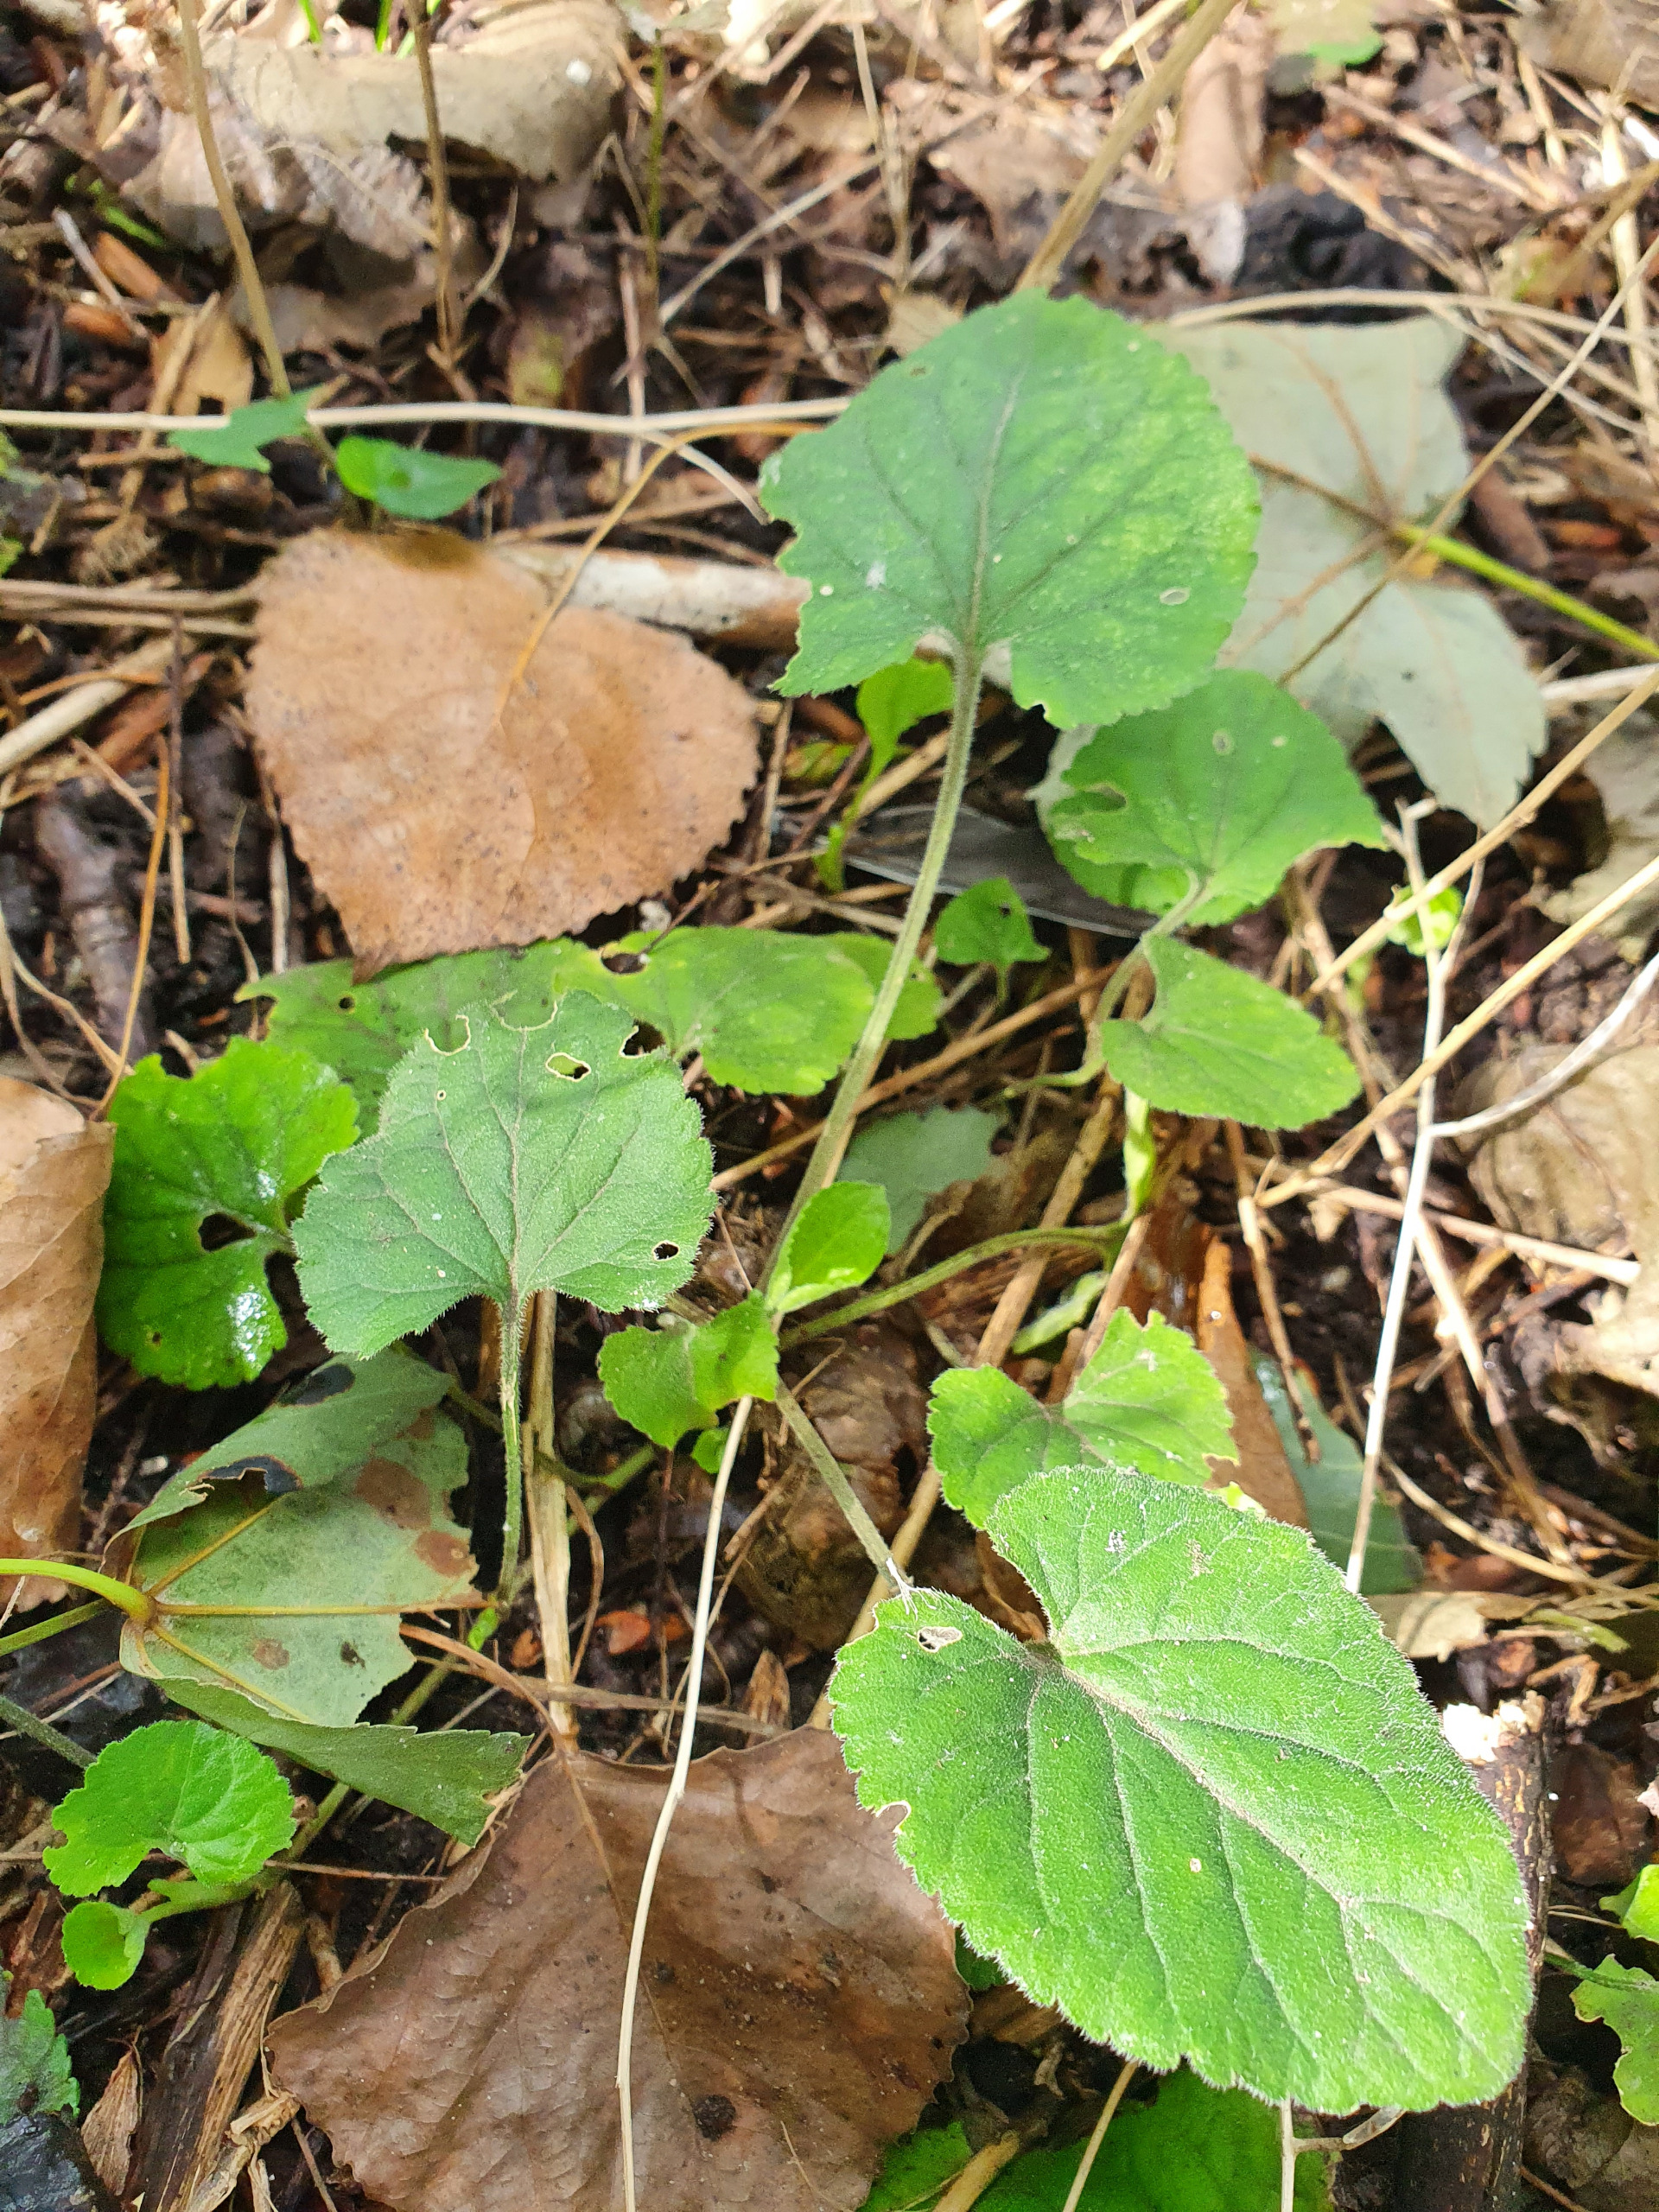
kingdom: Plantae
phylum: Tracheophyta
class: Magnoliopsida
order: Malpighiales
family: Violaceae
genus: Viola
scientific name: Viola hirta
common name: Håret viol
